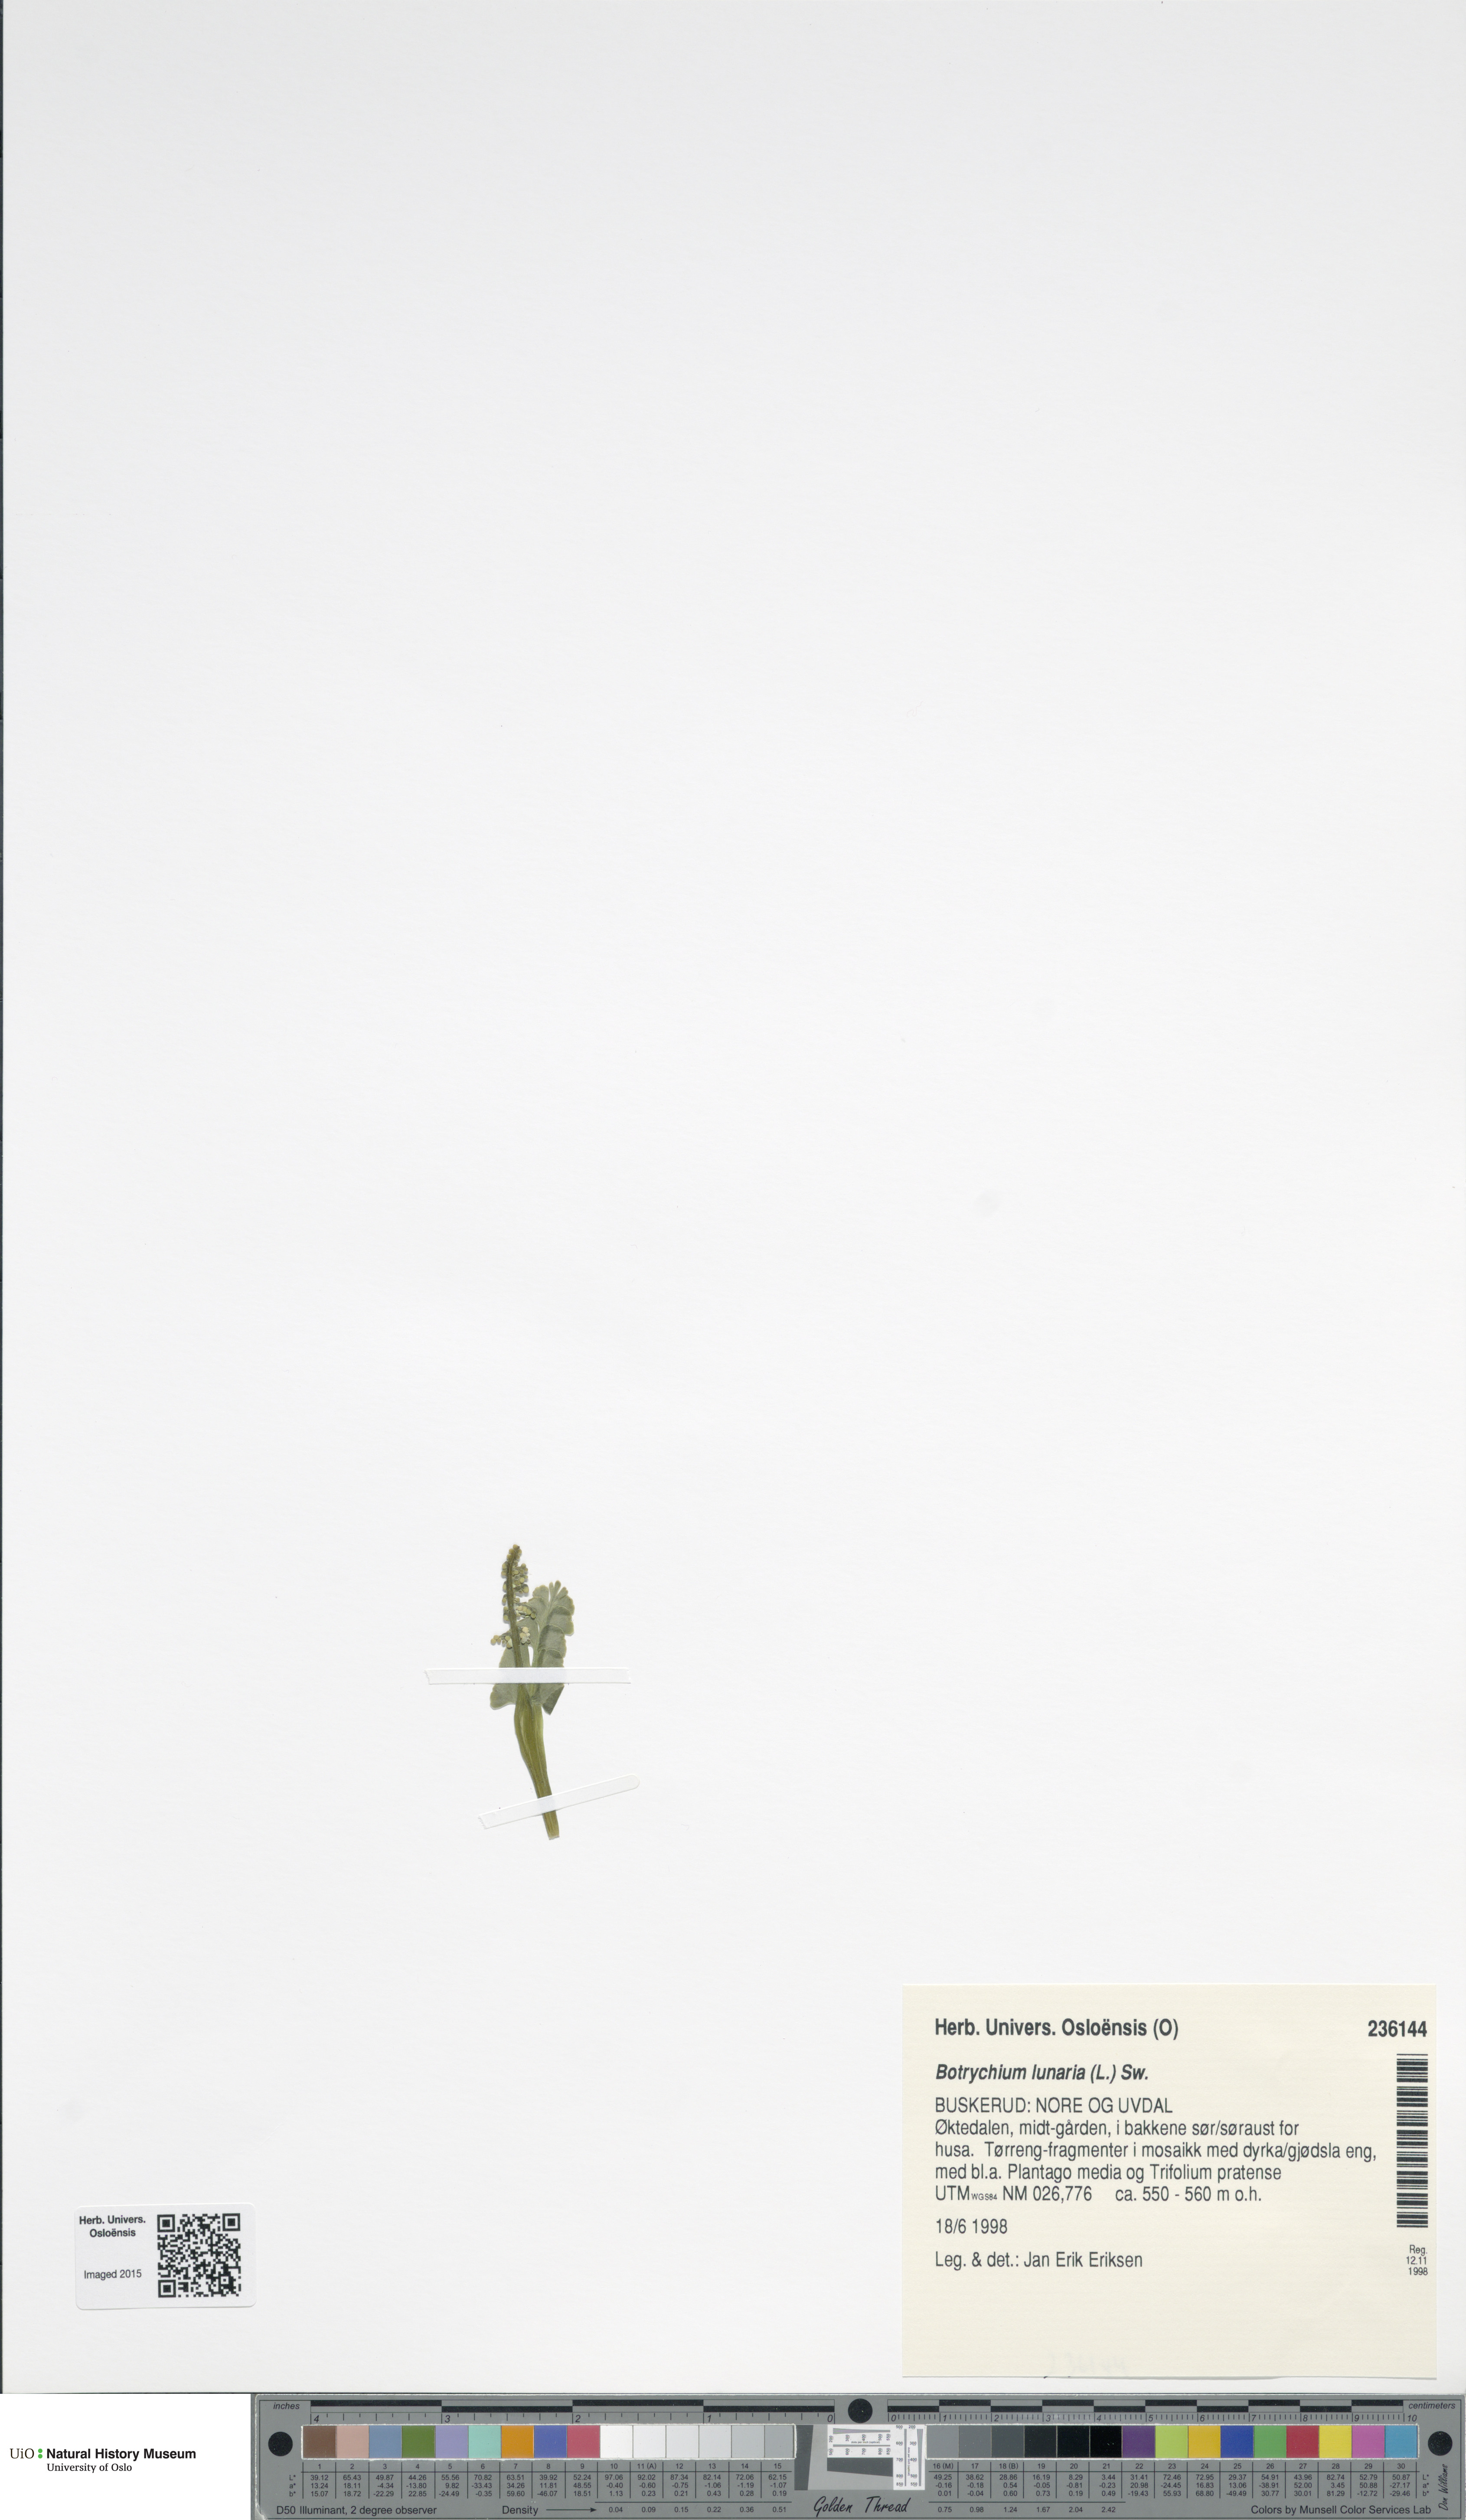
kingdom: Plantae
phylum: Tracheophyta
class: Polypodiopsida
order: Ophioglossales
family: Ophioglossaceae
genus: Botrychium
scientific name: Botrychium lunaria
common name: Moonwort
